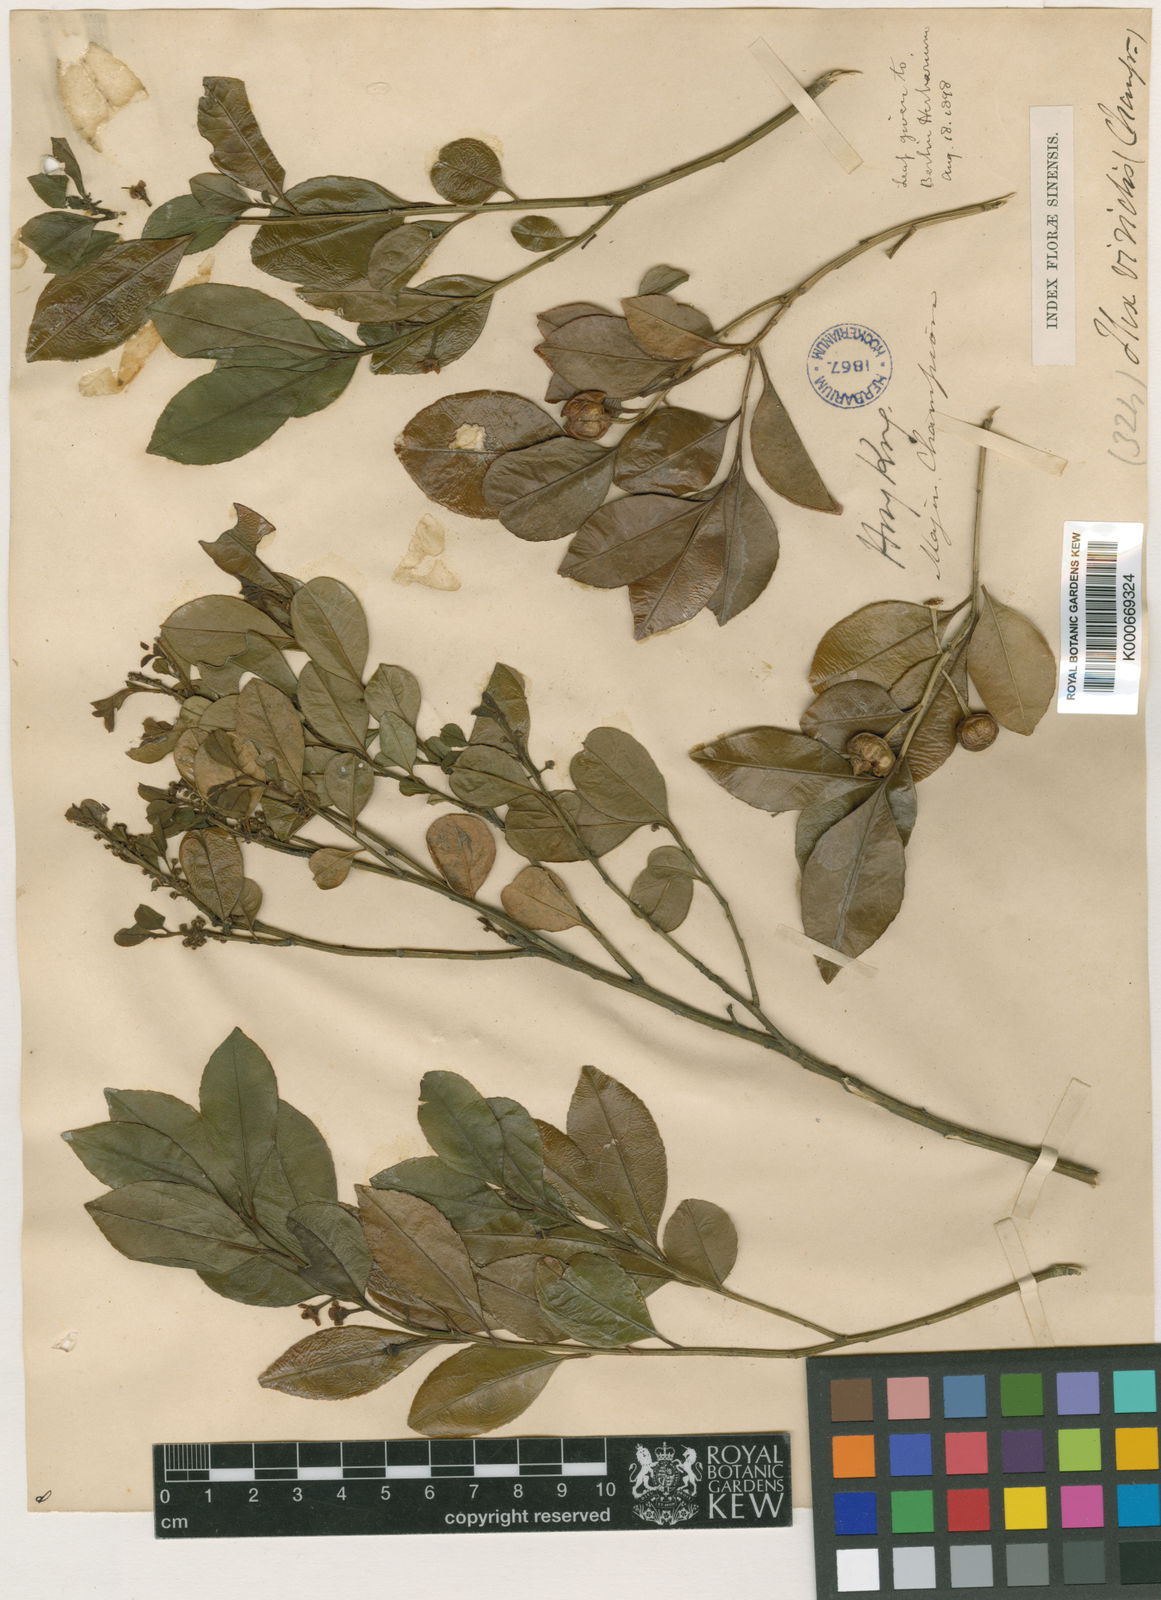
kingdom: Plantae
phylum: Tracheophyta
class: Magnoliopsida
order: Aquifoliales
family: Aquifoliaceae
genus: Ilex
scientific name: Ilex viridis
